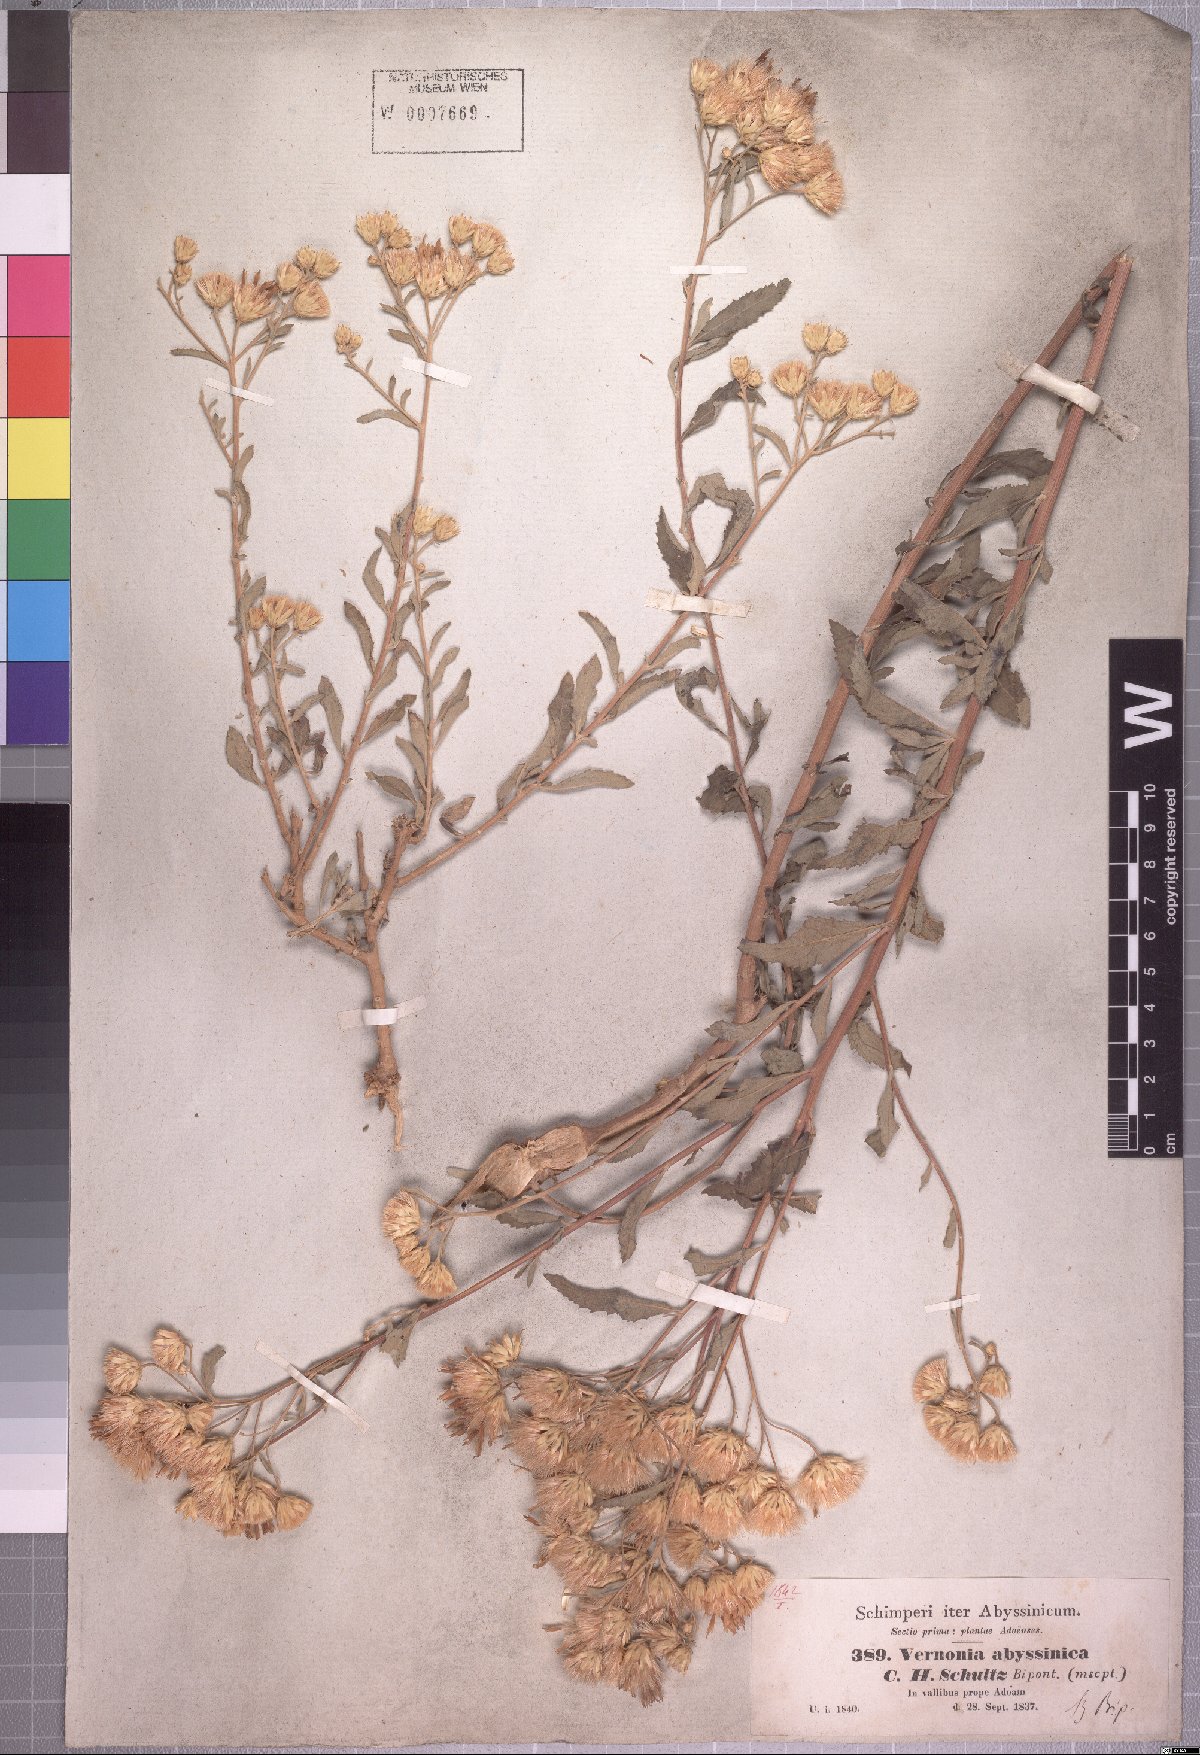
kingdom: Plantae
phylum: Tracheophyta
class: Magnoliopsida
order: Asterales
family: Asteraceae
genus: Baccharoides
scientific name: Baccharoides schimperi
